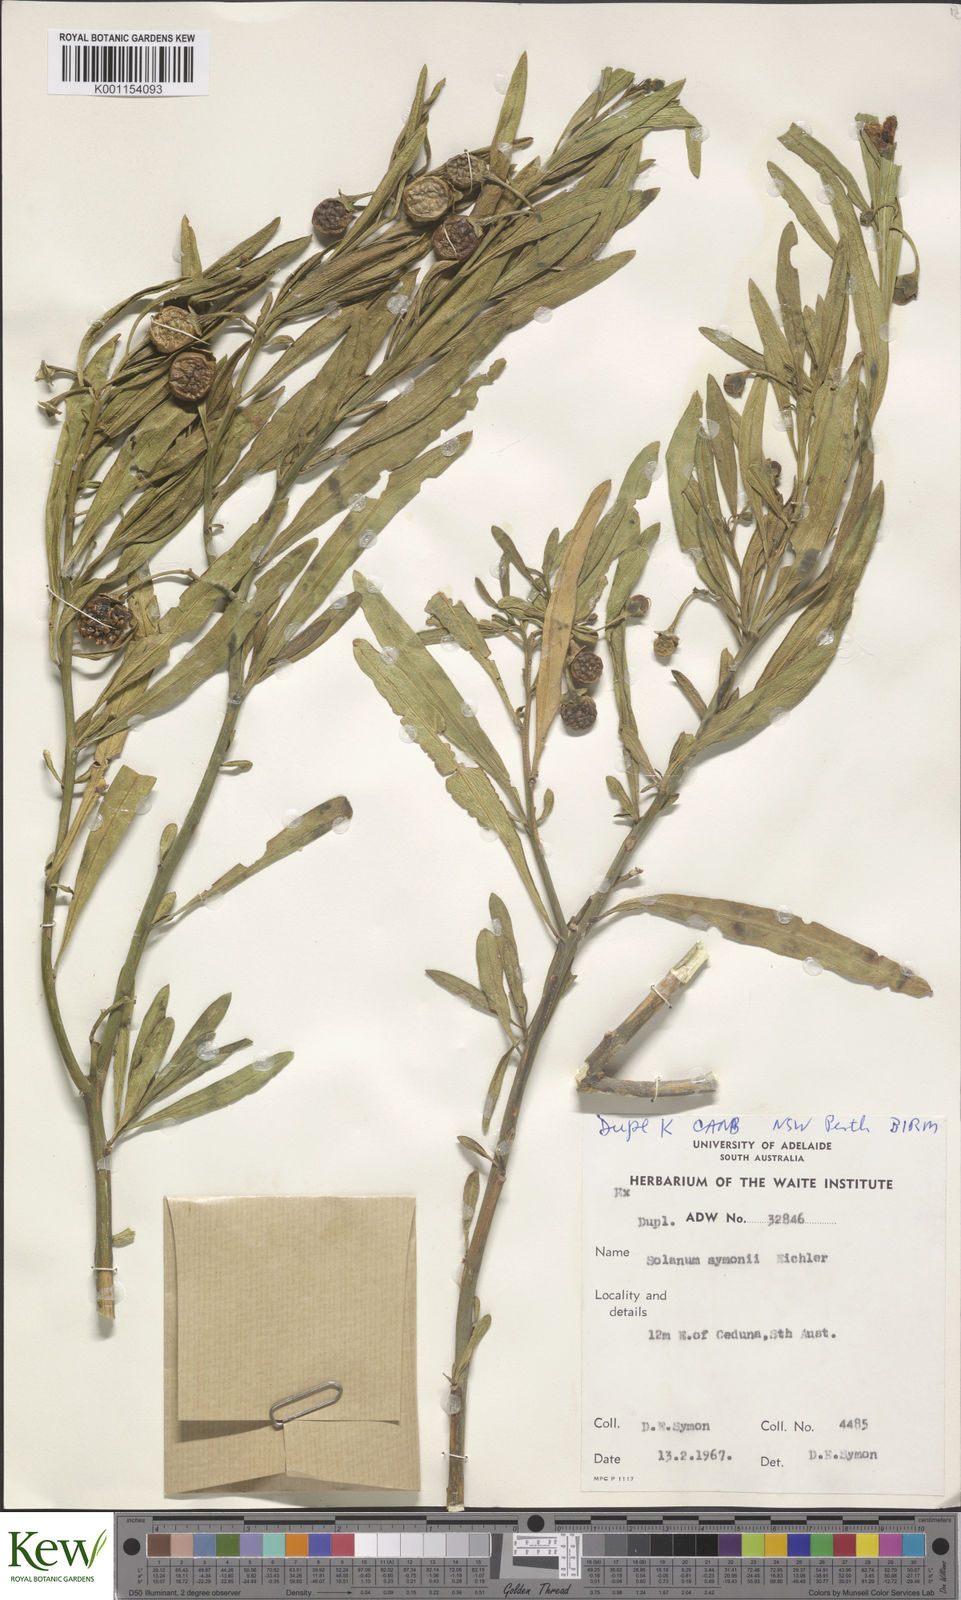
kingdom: Plantae
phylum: Tracheophyta
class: Magnoliopsida
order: Solanales
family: Solanaceae
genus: Solanum
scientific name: Solanum symonii
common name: South australian kangaroo-apple
